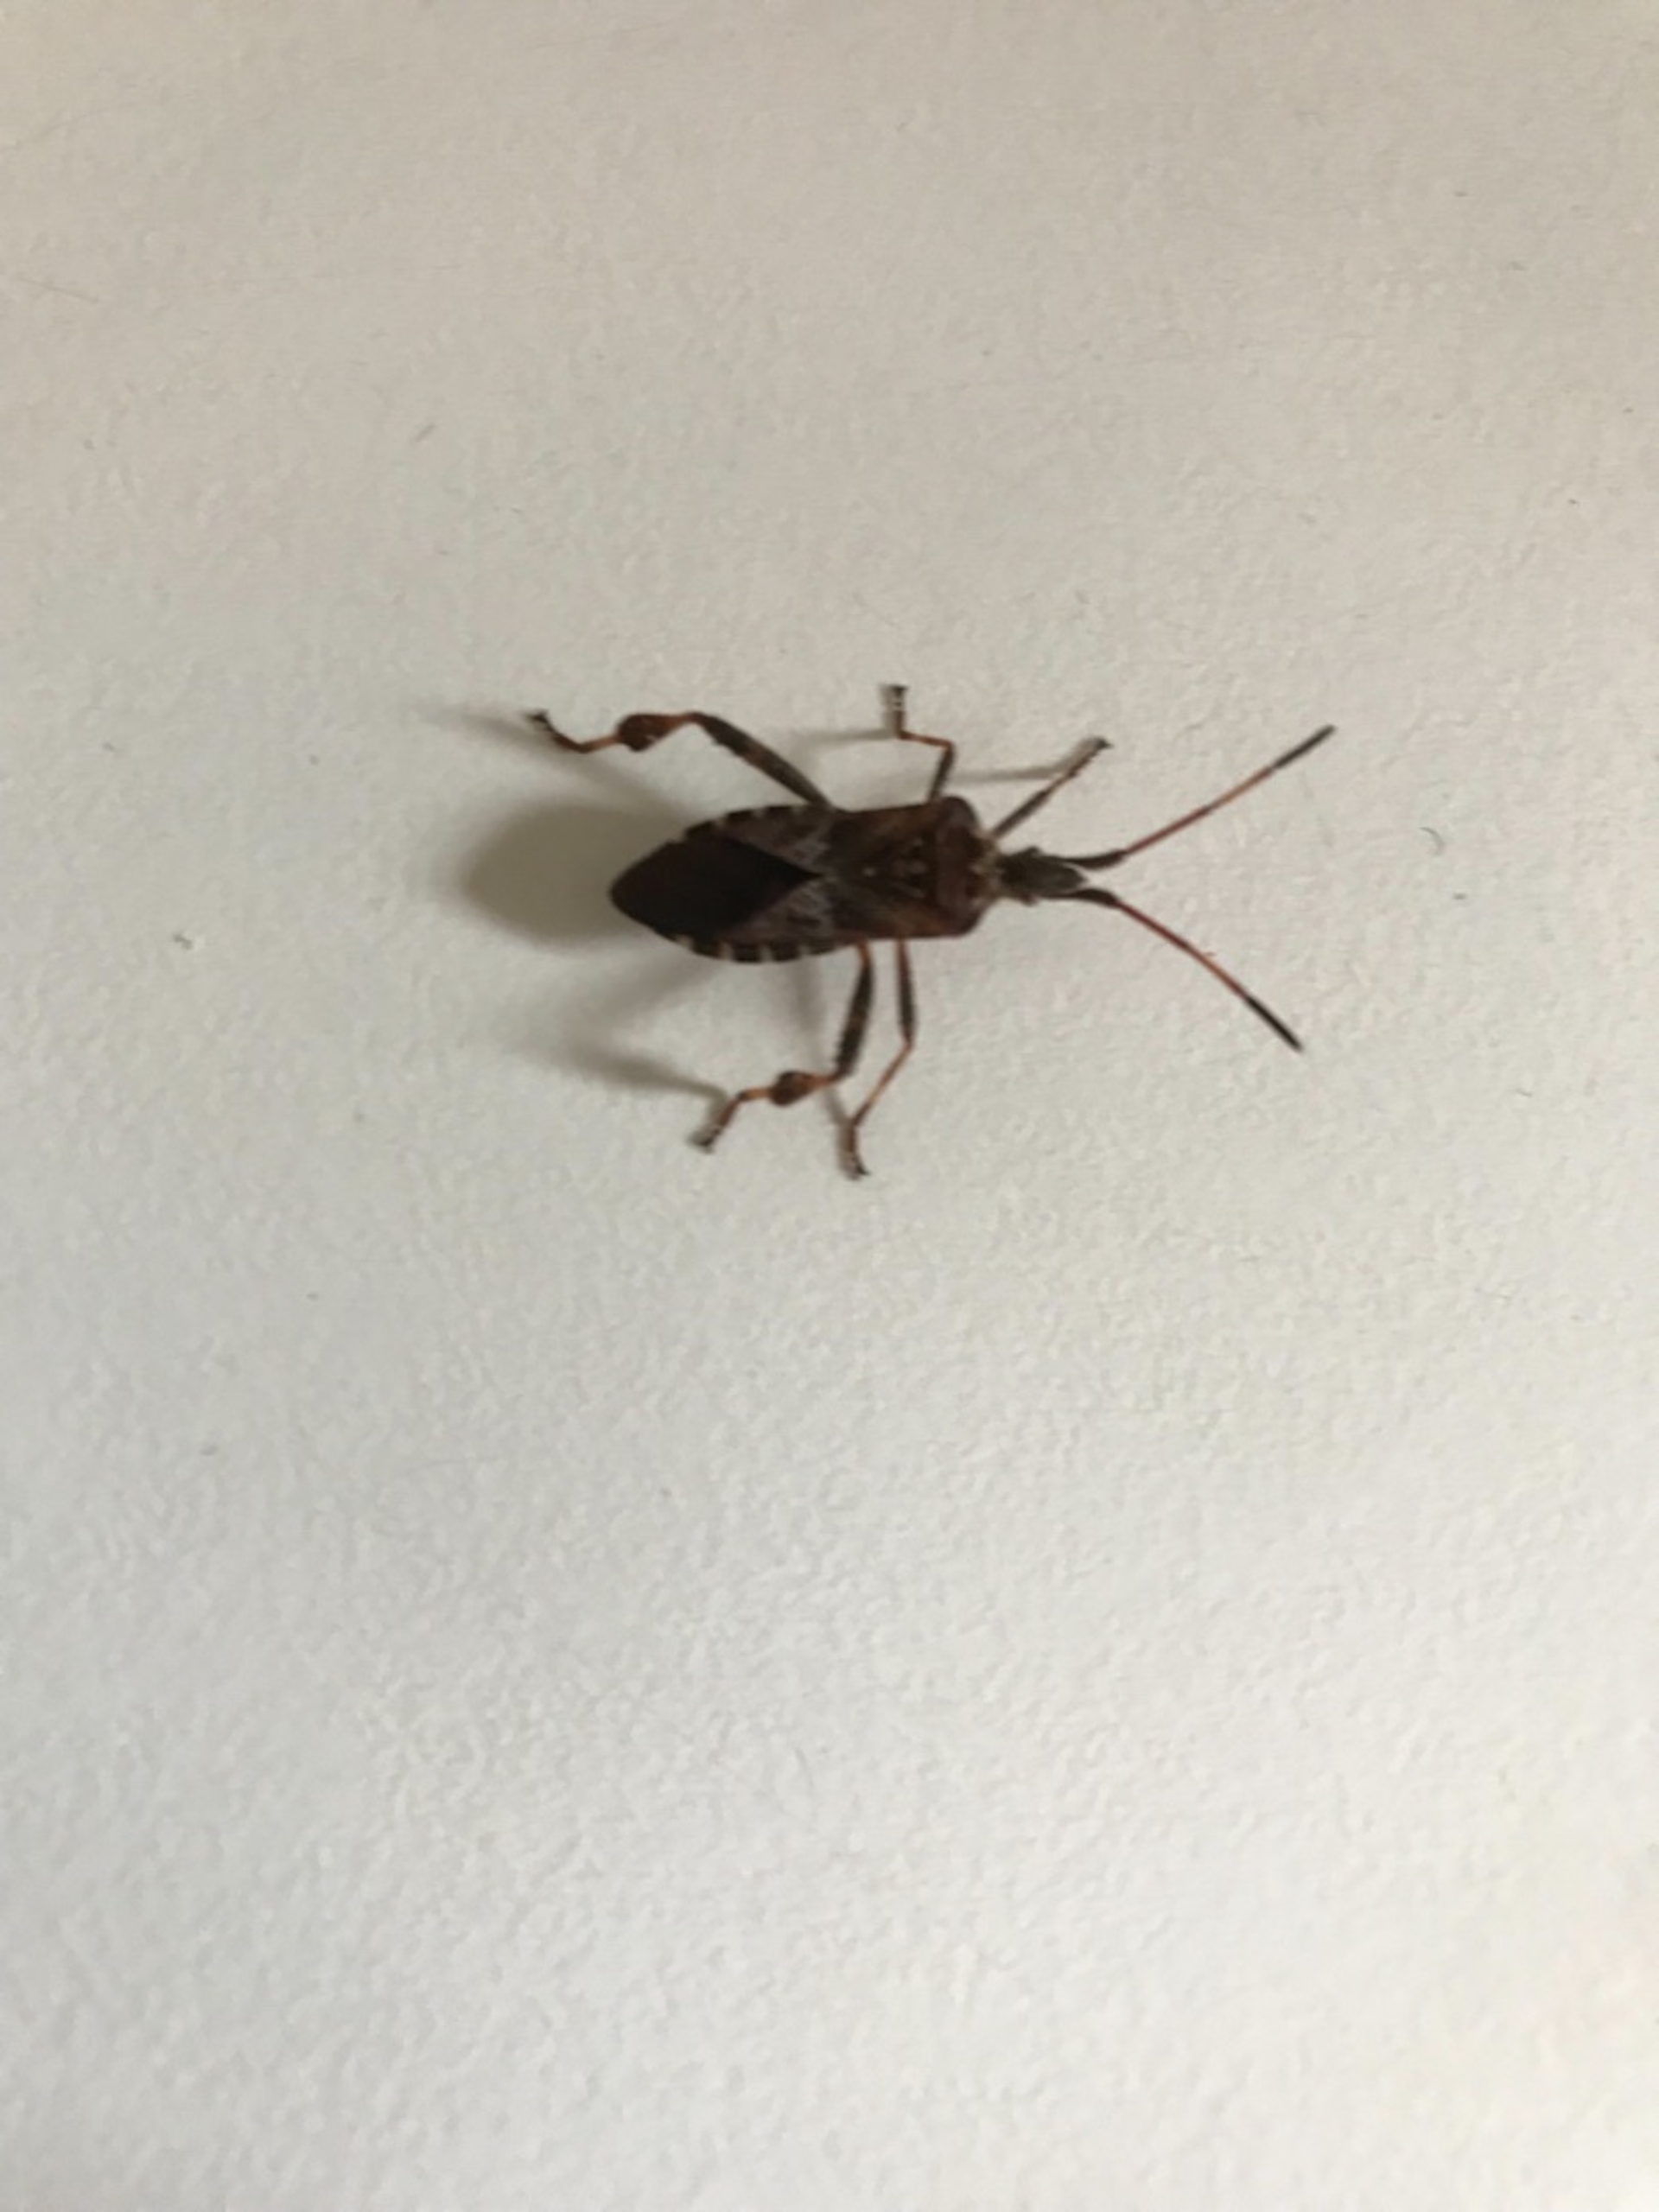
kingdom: Animalia
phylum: Arthropoda
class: Insecta
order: Hemiptera
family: Coreidae
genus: Leptoglossus
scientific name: Leptoglossus occidentalis
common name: Amerikansk fyrretæge
